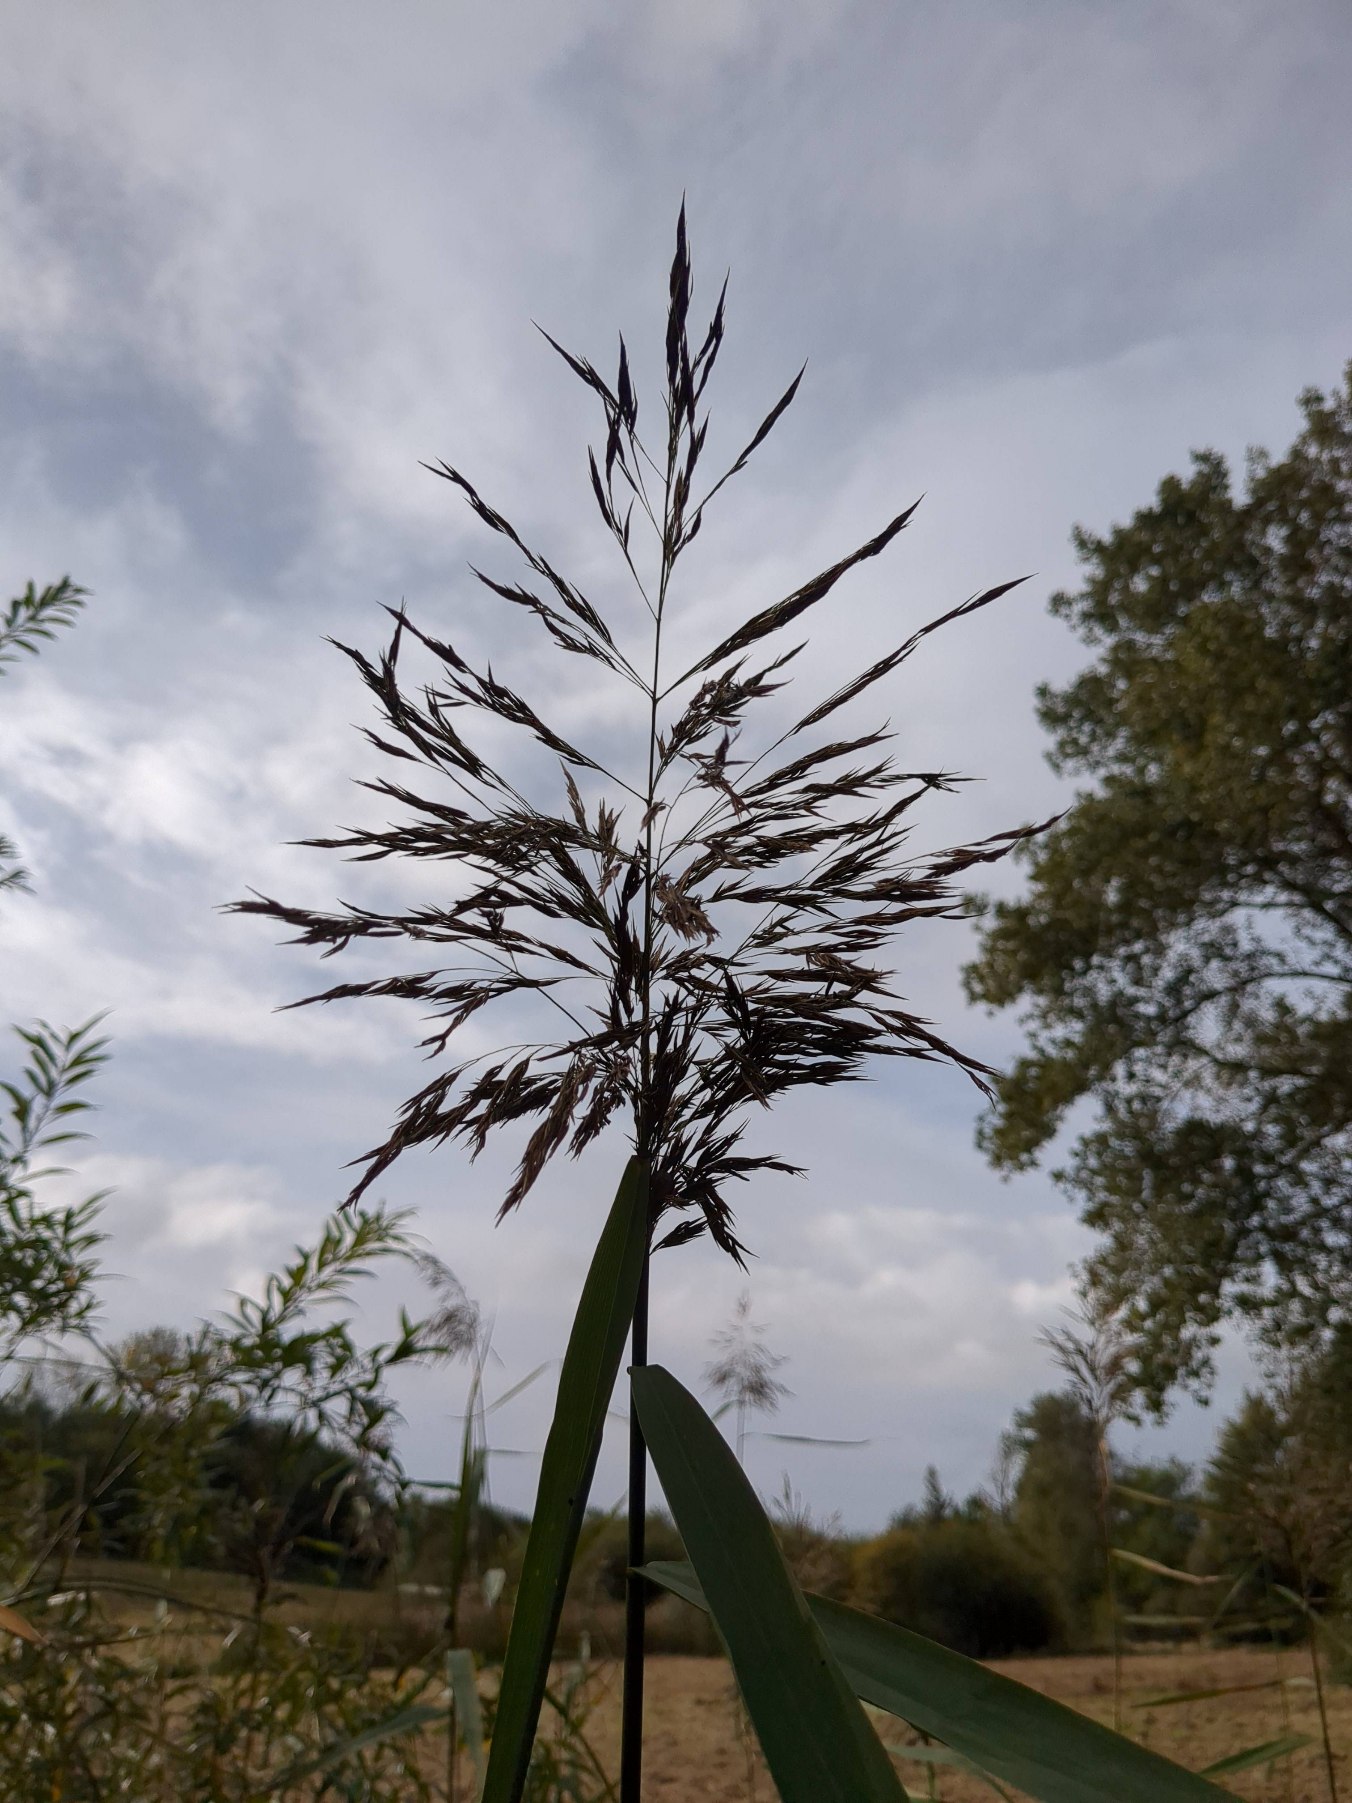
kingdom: Plantae
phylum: Tracheophyta
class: Liliopsida
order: Poales
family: Poaceae
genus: Phragmites
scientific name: Phragmites australis
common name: Tagrør
